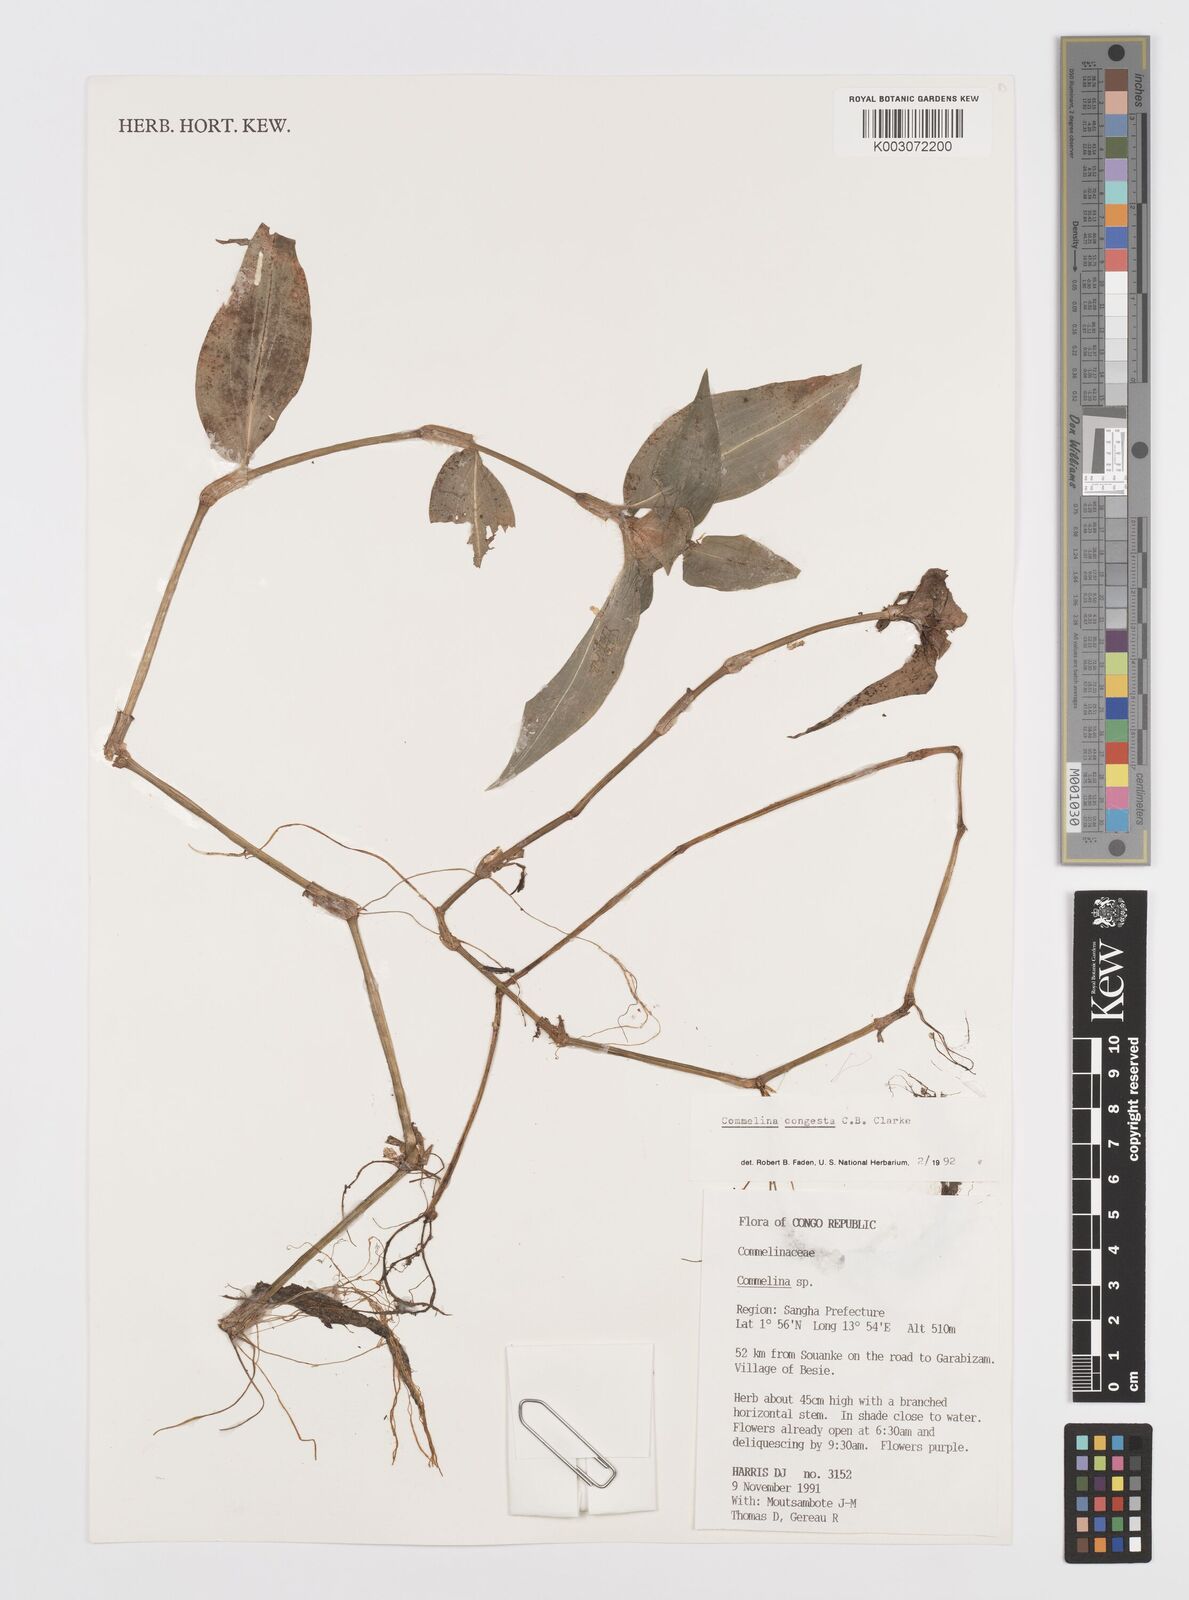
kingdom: Plantae
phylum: Tracheophyta
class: Liliopsida
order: Commelinales
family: Commelinaceae
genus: Commelina
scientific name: Commelina congesta
